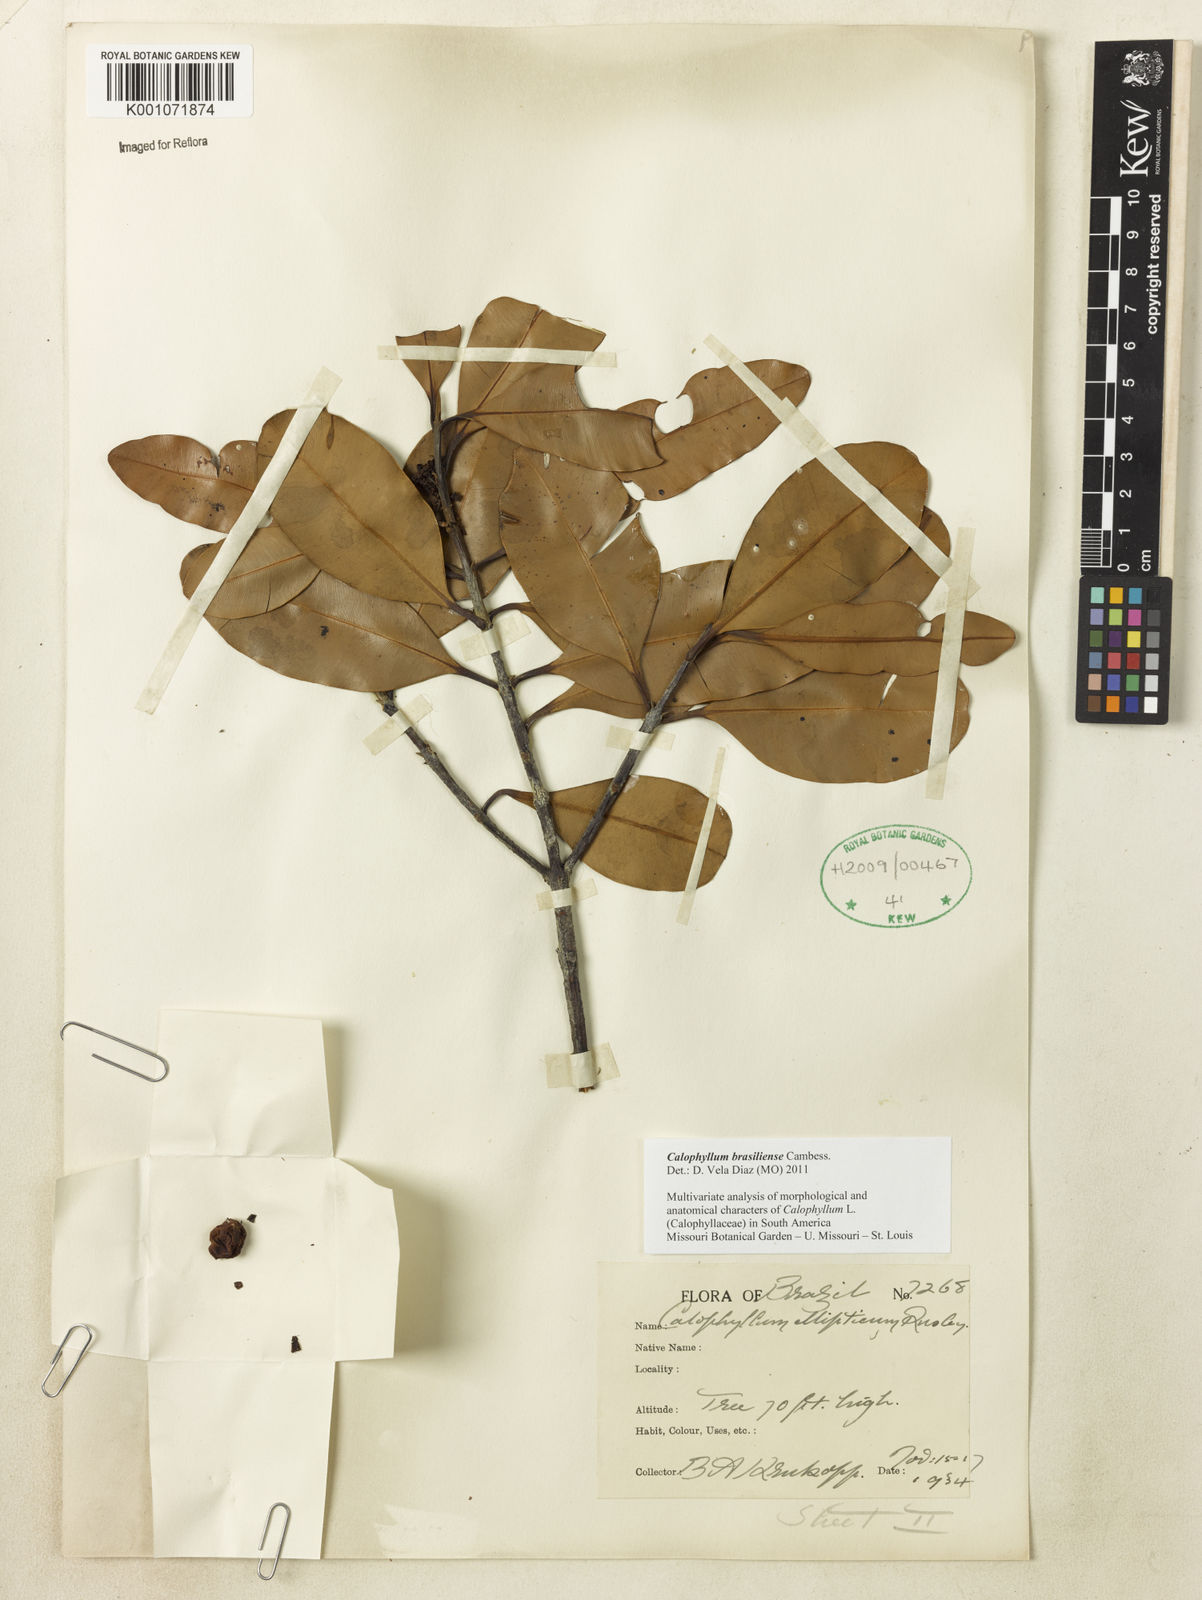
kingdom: Plantae
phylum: Tracheophyta
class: Magnoliopsida
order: Malpighiales
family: Calophyllaceae
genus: Calophyllum
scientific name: Calophyllum brasiliense
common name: Santa maria
